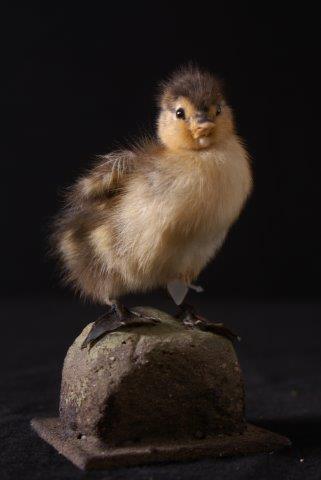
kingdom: Animalia
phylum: Chordata
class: Aves
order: Anseriformes
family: Anatidae
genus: Anas
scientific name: Anas platyrhynchos
